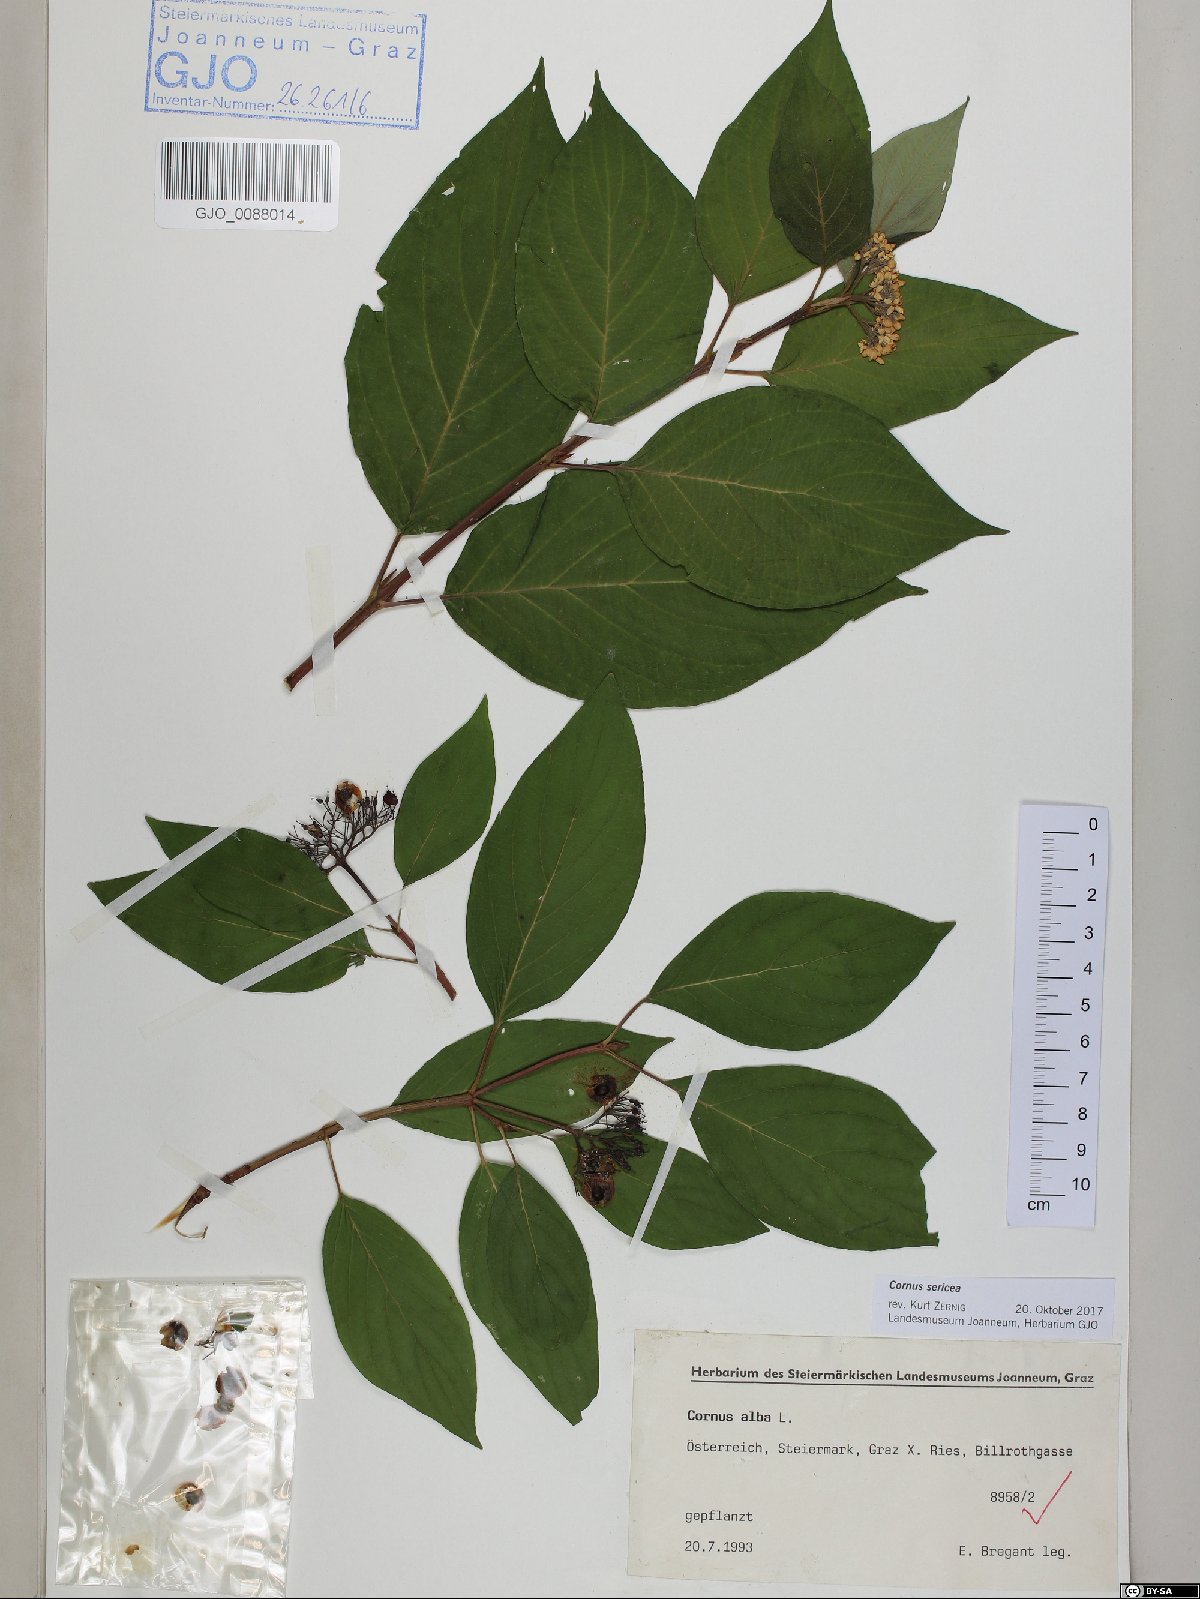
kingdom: Plantae
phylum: Tracheophyta
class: Magnoliopsida
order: Cornales
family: Cornaceae
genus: Cornus
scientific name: Cornus sericea
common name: Red-osier dogwood
